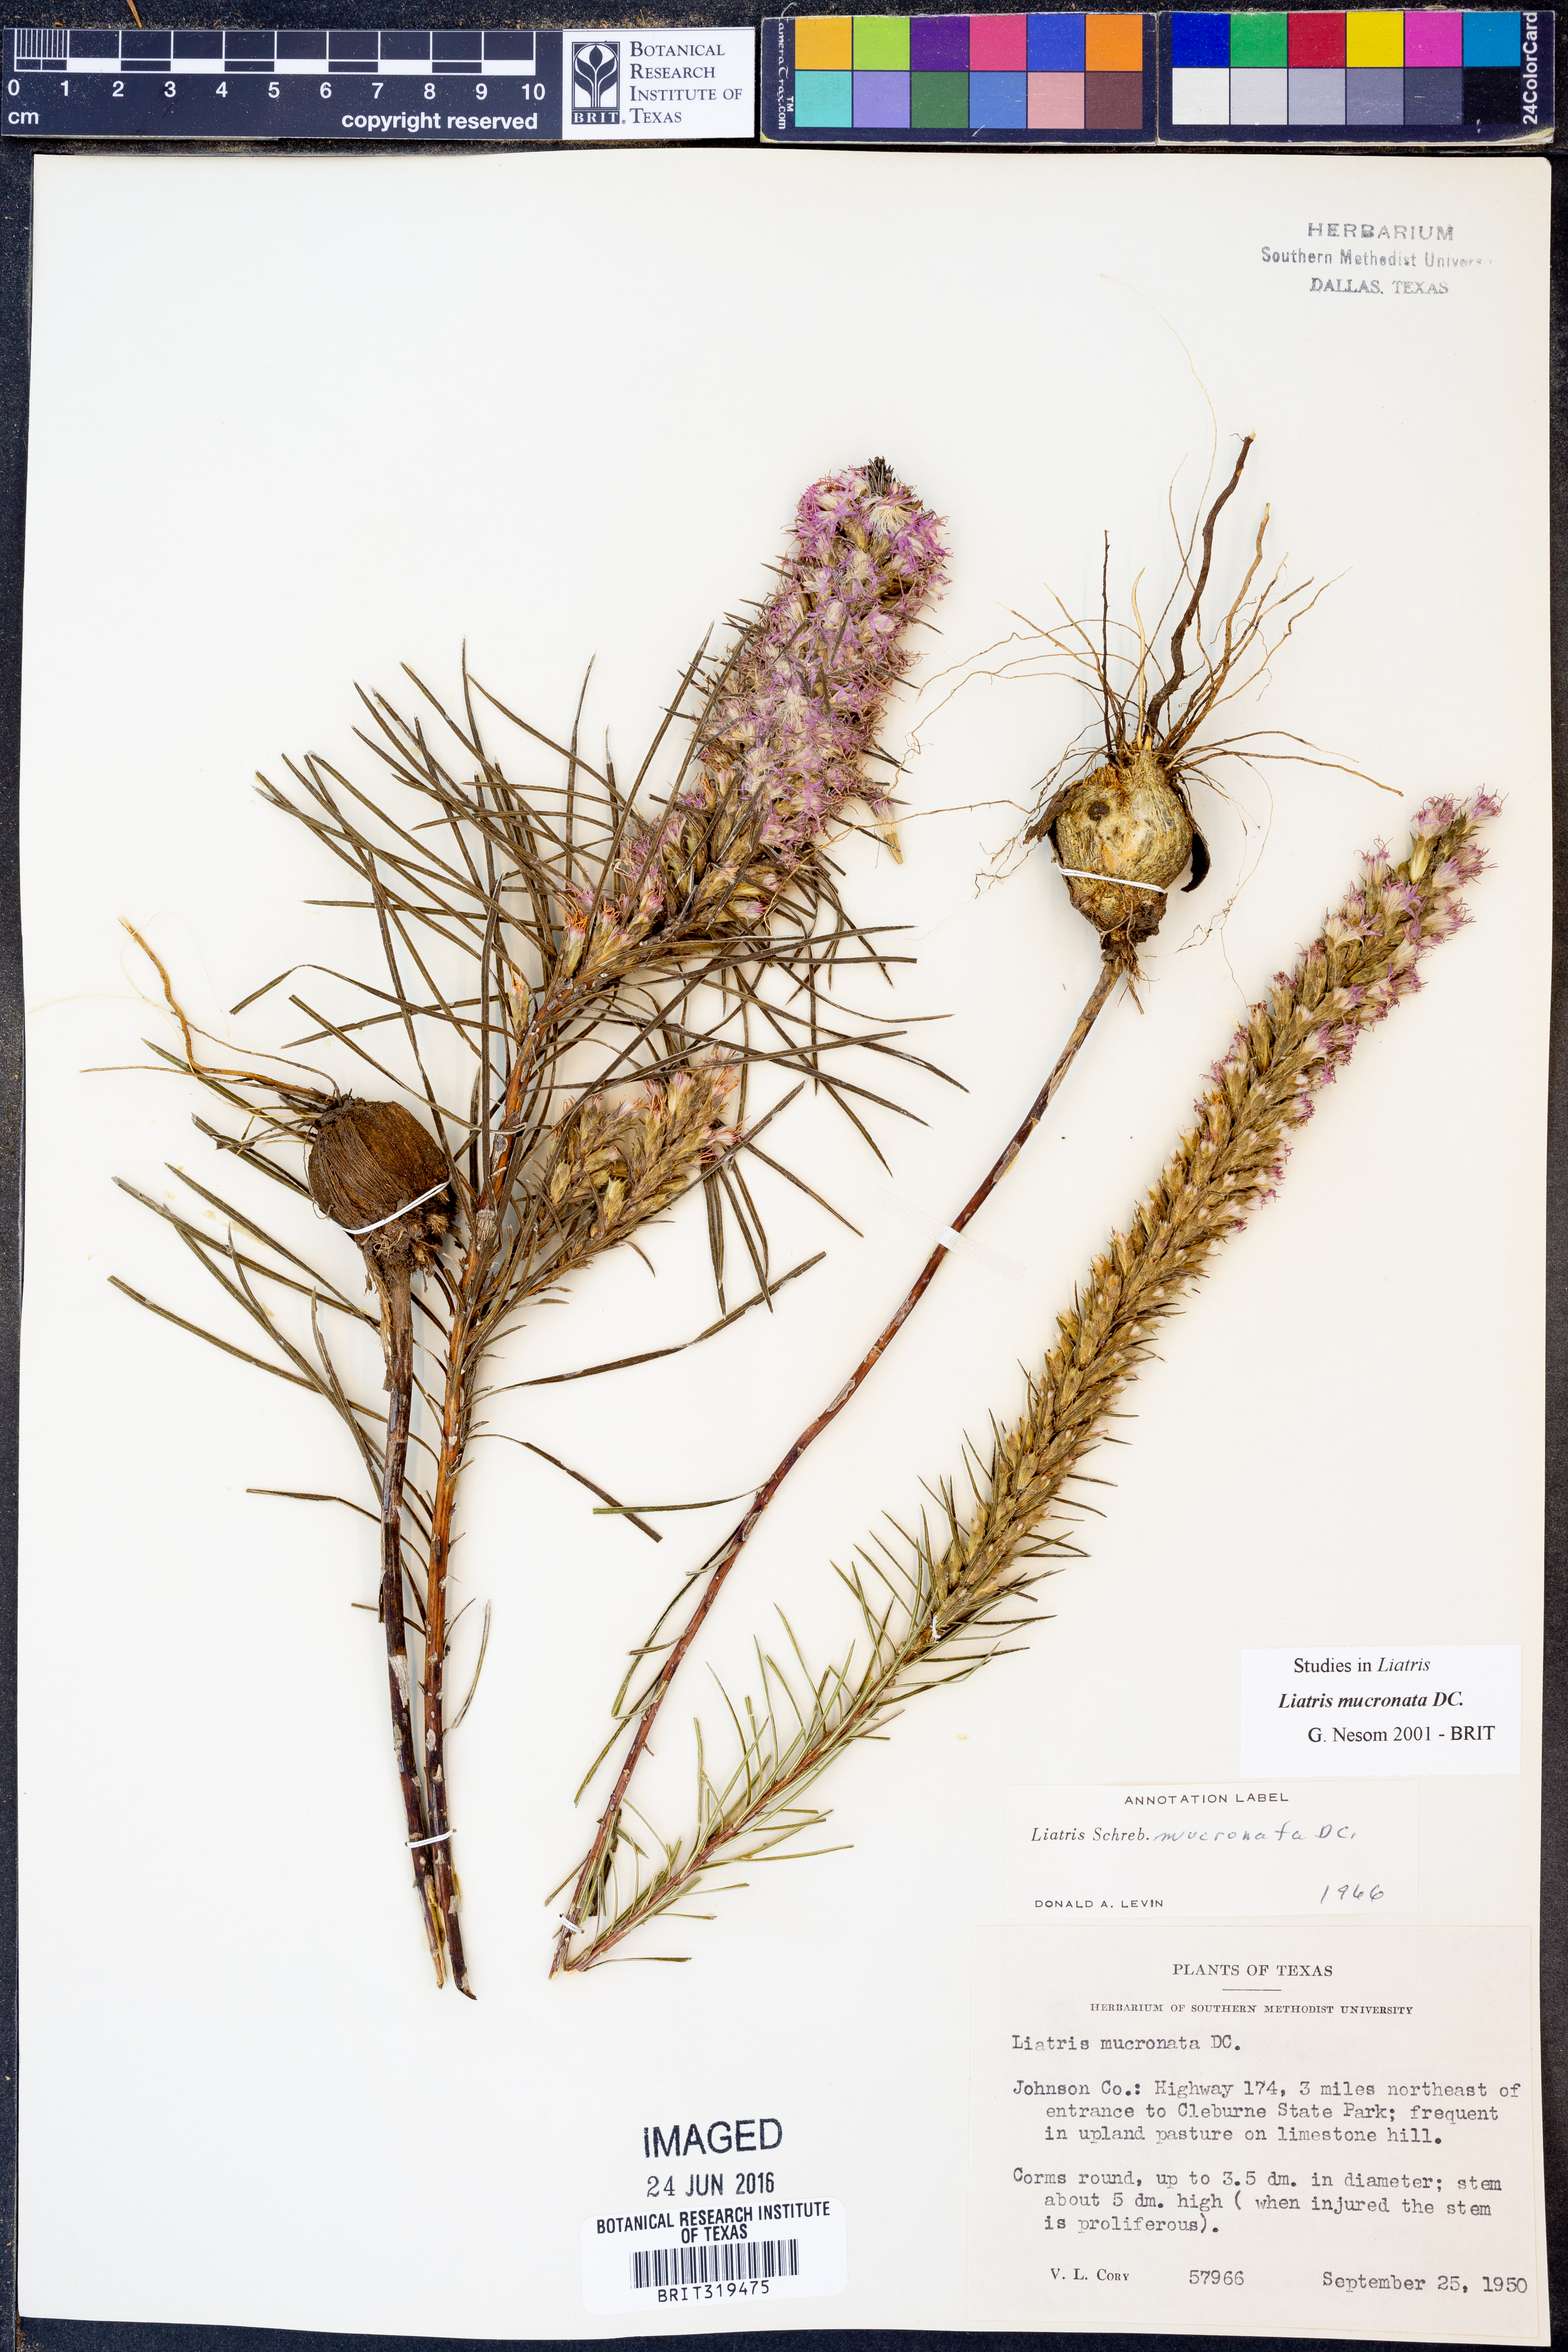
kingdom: Plantae
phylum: Tracheophyta
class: Magnoliopsida
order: Asterales
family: Asteraceae
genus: Liatris
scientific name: Liatris mucronata
